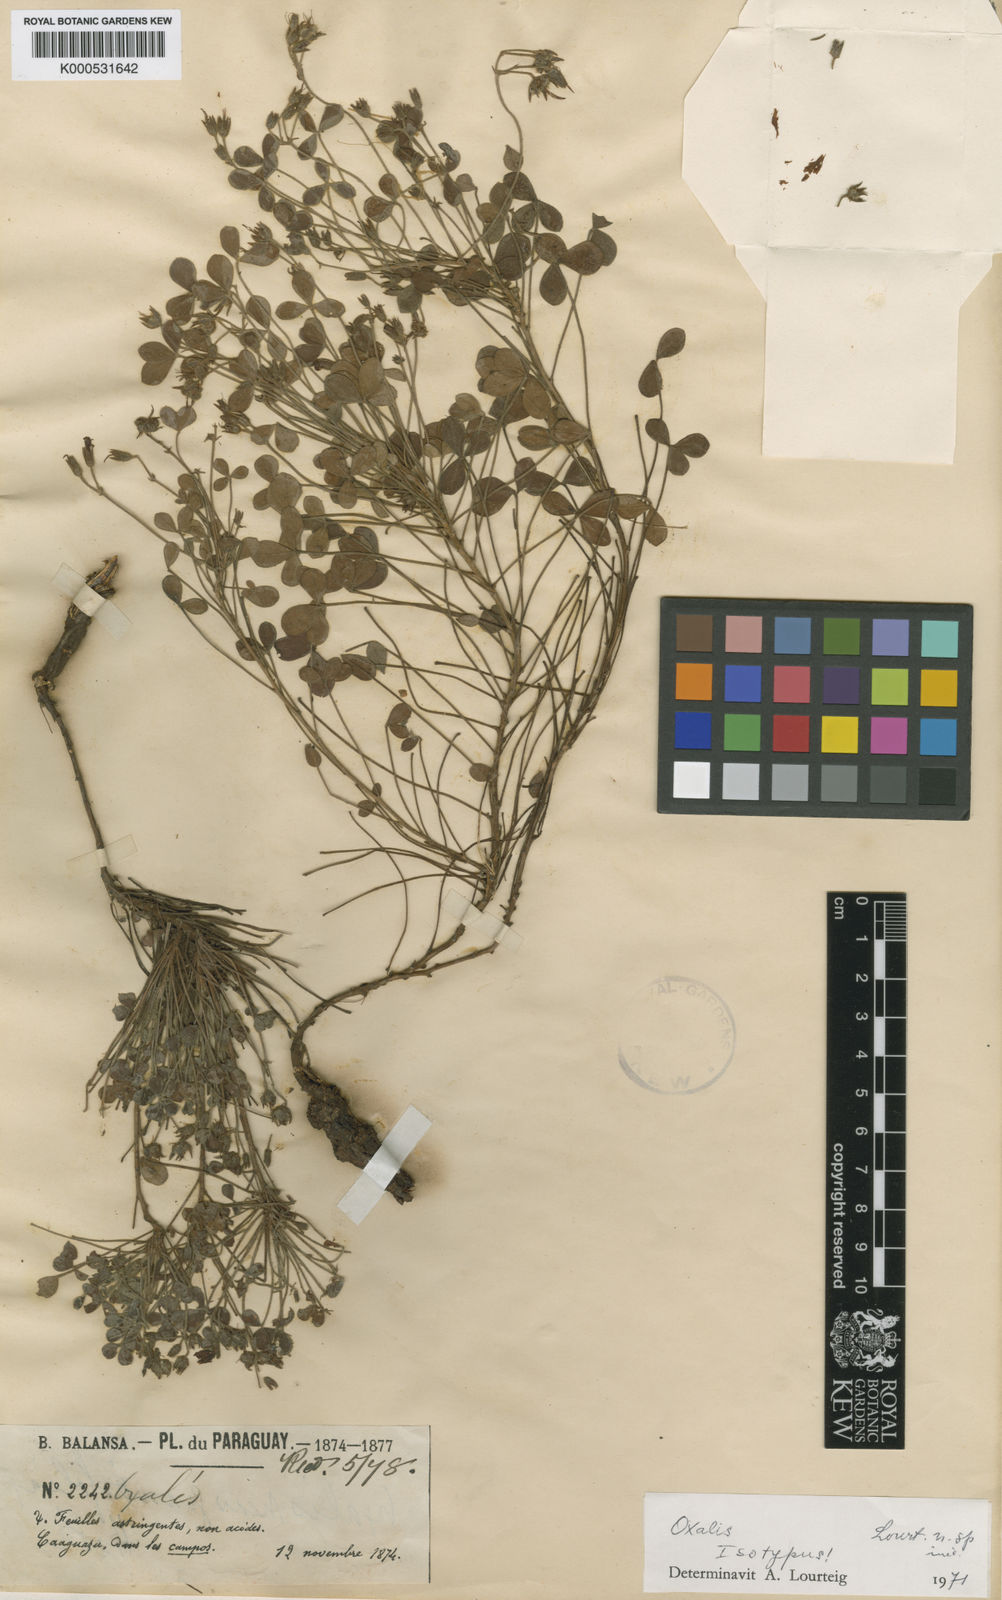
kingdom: Plantae
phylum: Tracheophyta
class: Magnoliopsida
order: Oxalidales
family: Oxalidaceae
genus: Oxalis
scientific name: Oxalis
